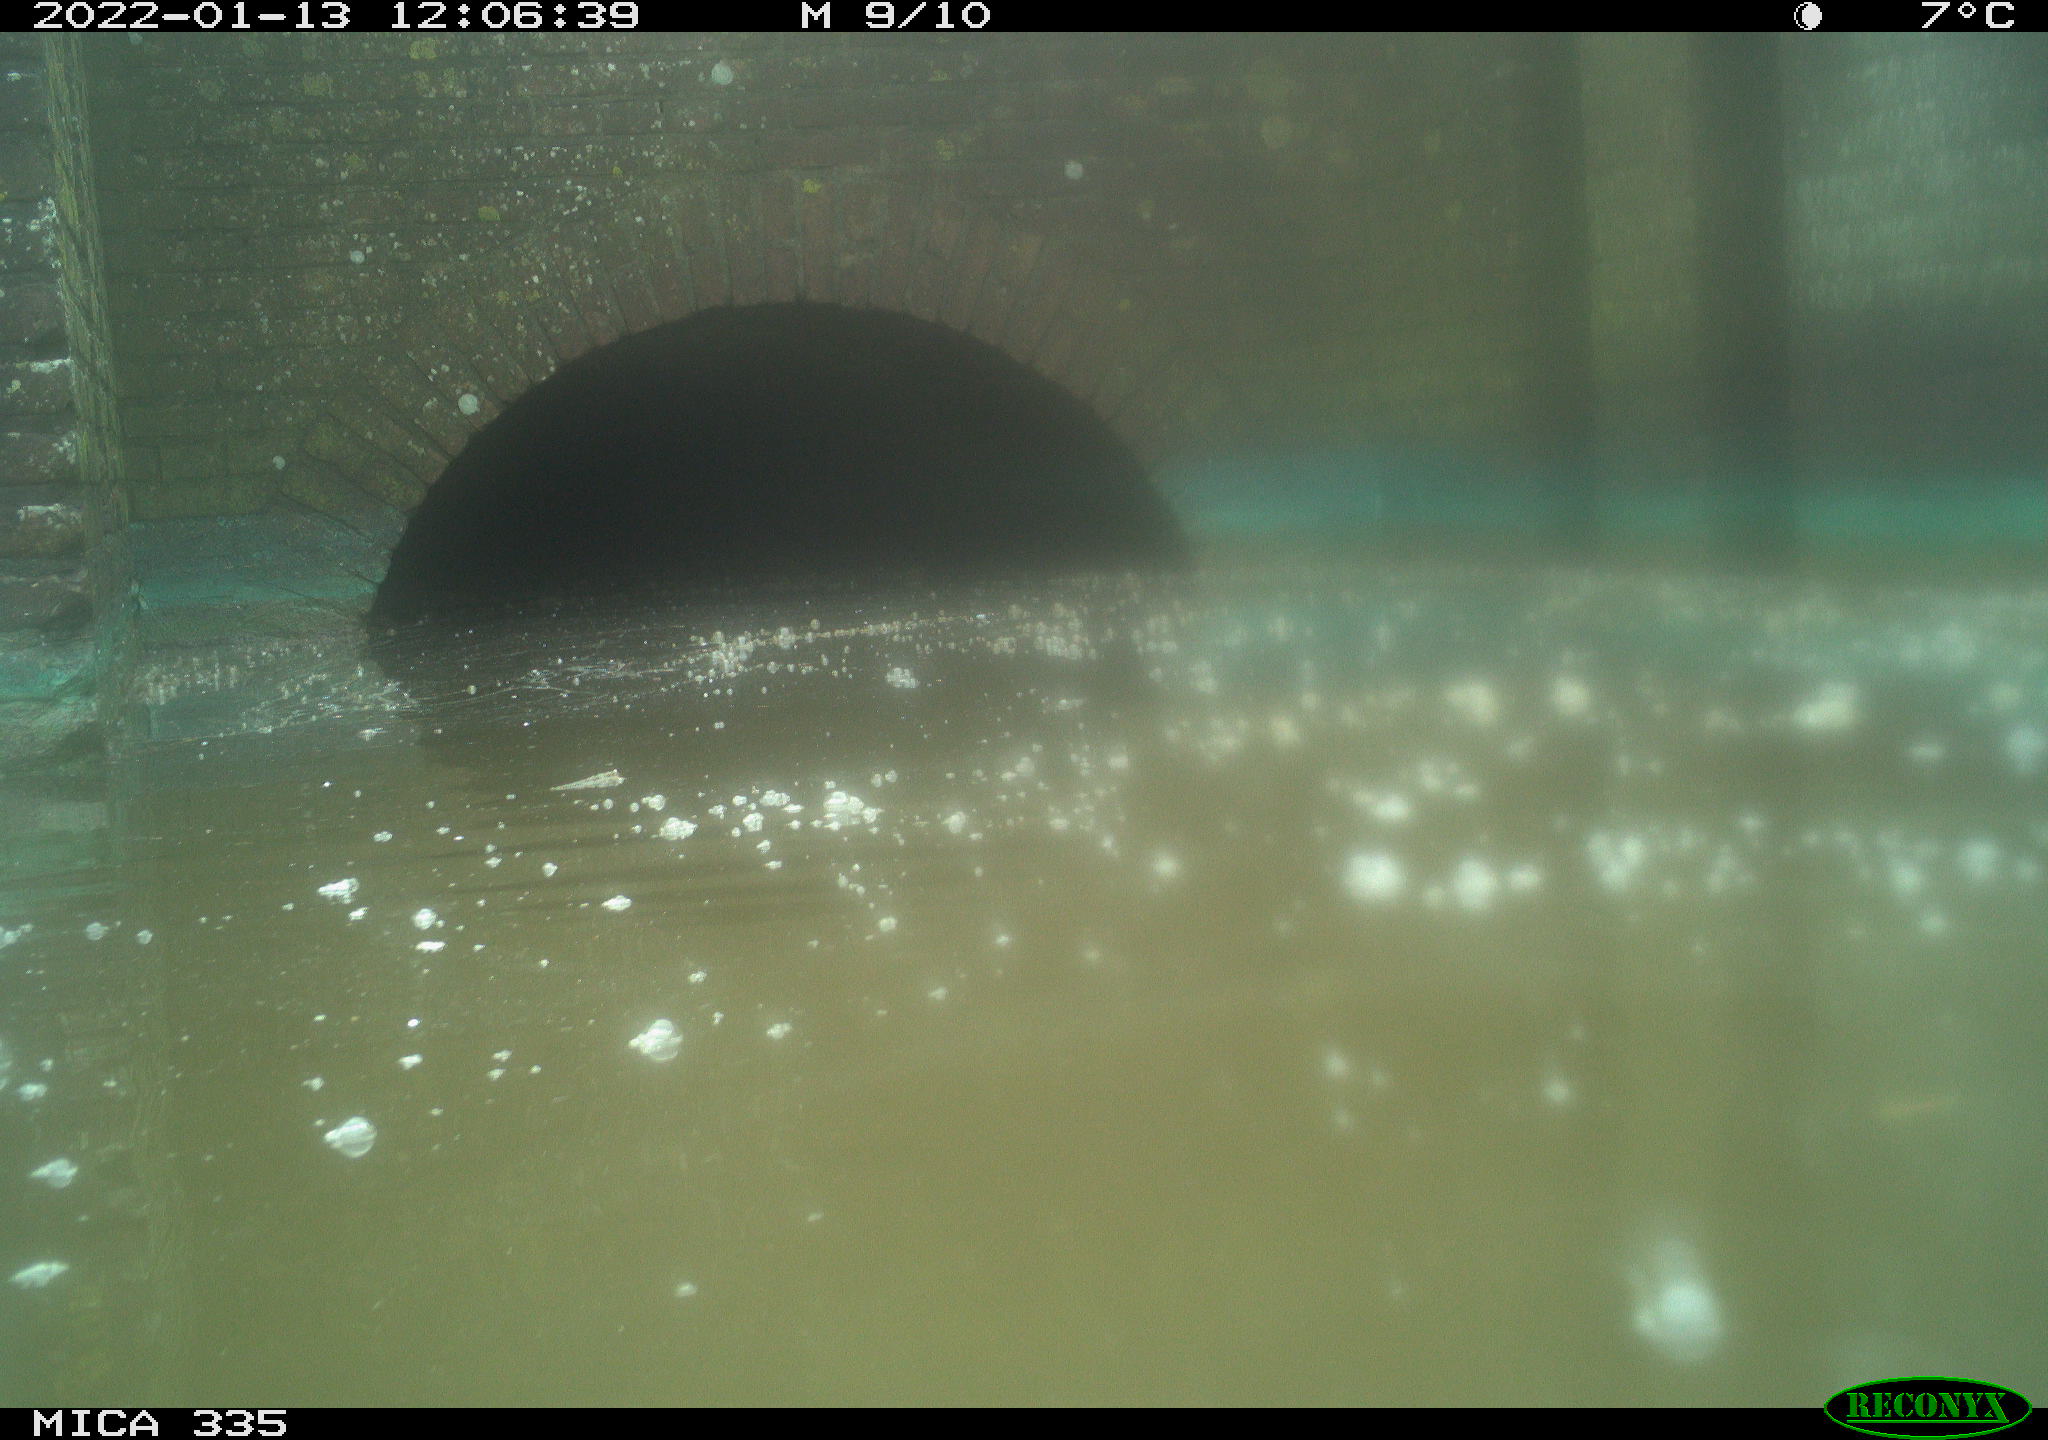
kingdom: Animalia
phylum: Chordata
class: Aves
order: Suliformes
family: Phalacrocoracidae
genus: Phalacrocorax
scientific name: Phalacrocorax carbo
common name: Great cormorant
